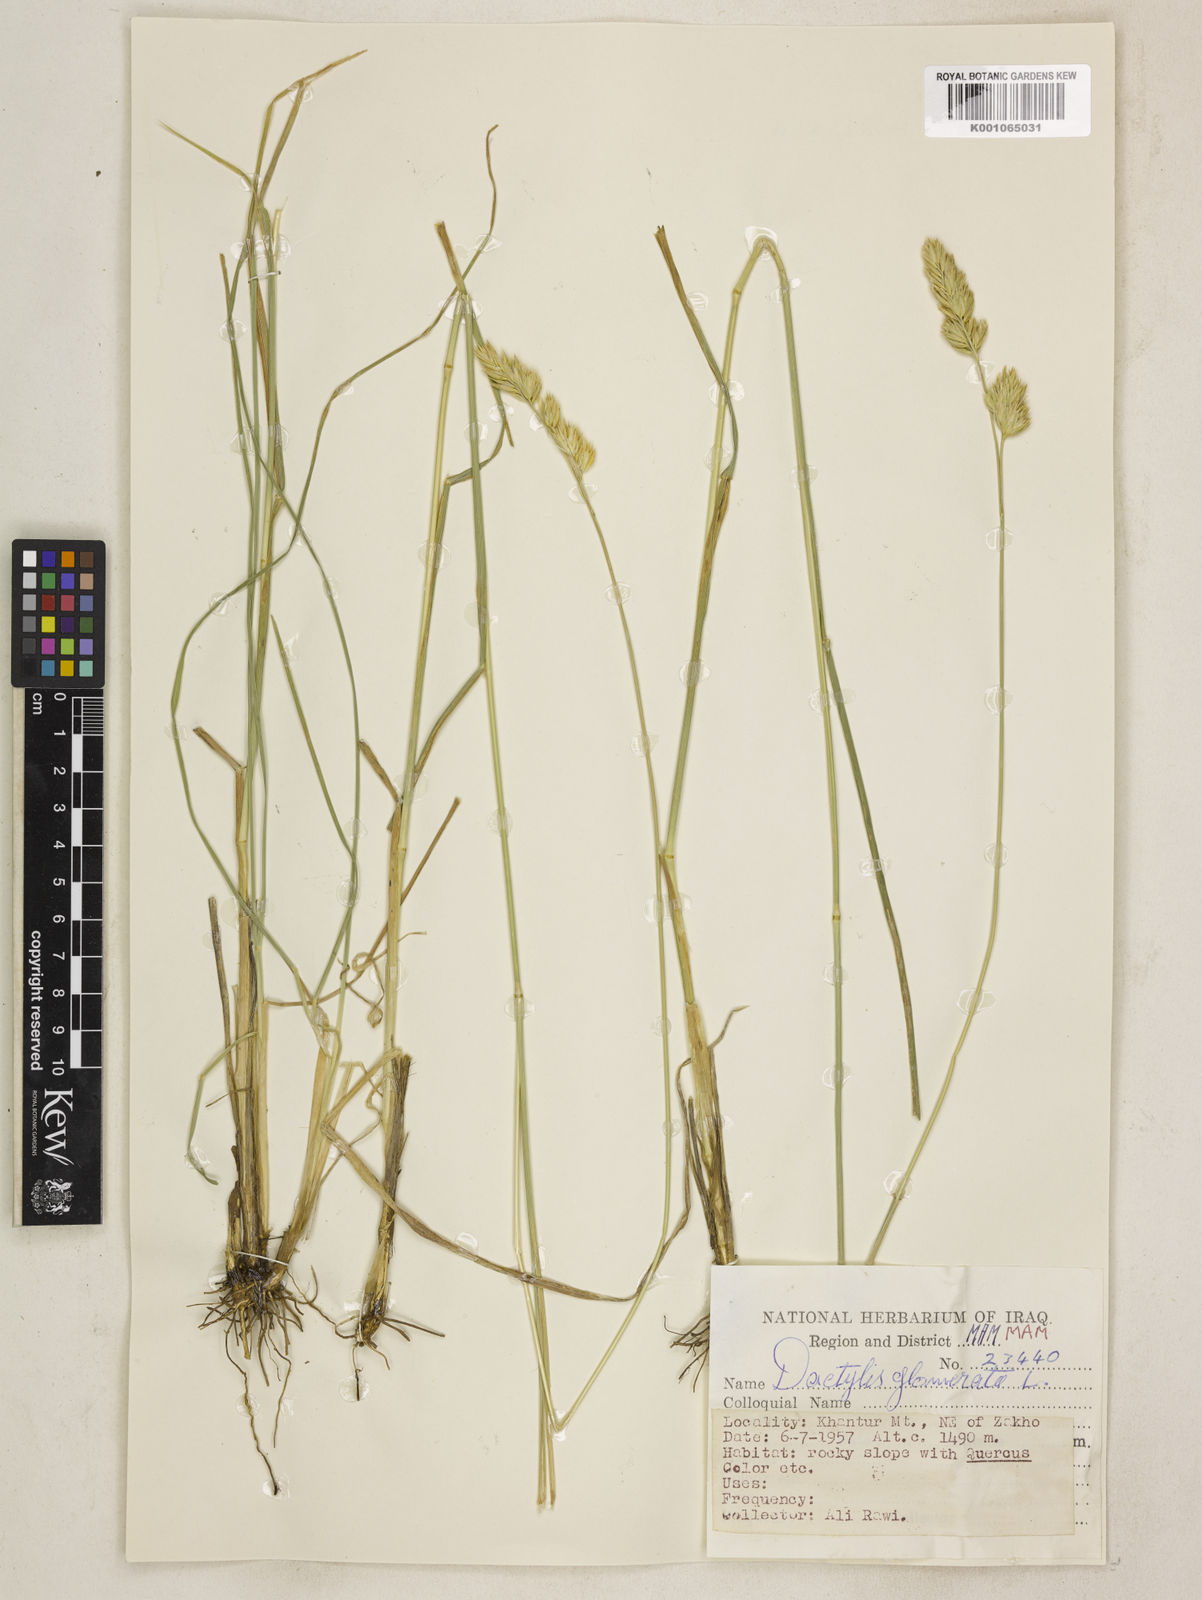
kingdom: Plantae
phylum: Tracheophyta
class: Liliopsida
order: Poales
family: Poaceae
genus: Dactylis
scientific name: Dactylis glomerata
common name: Orchardgrass
